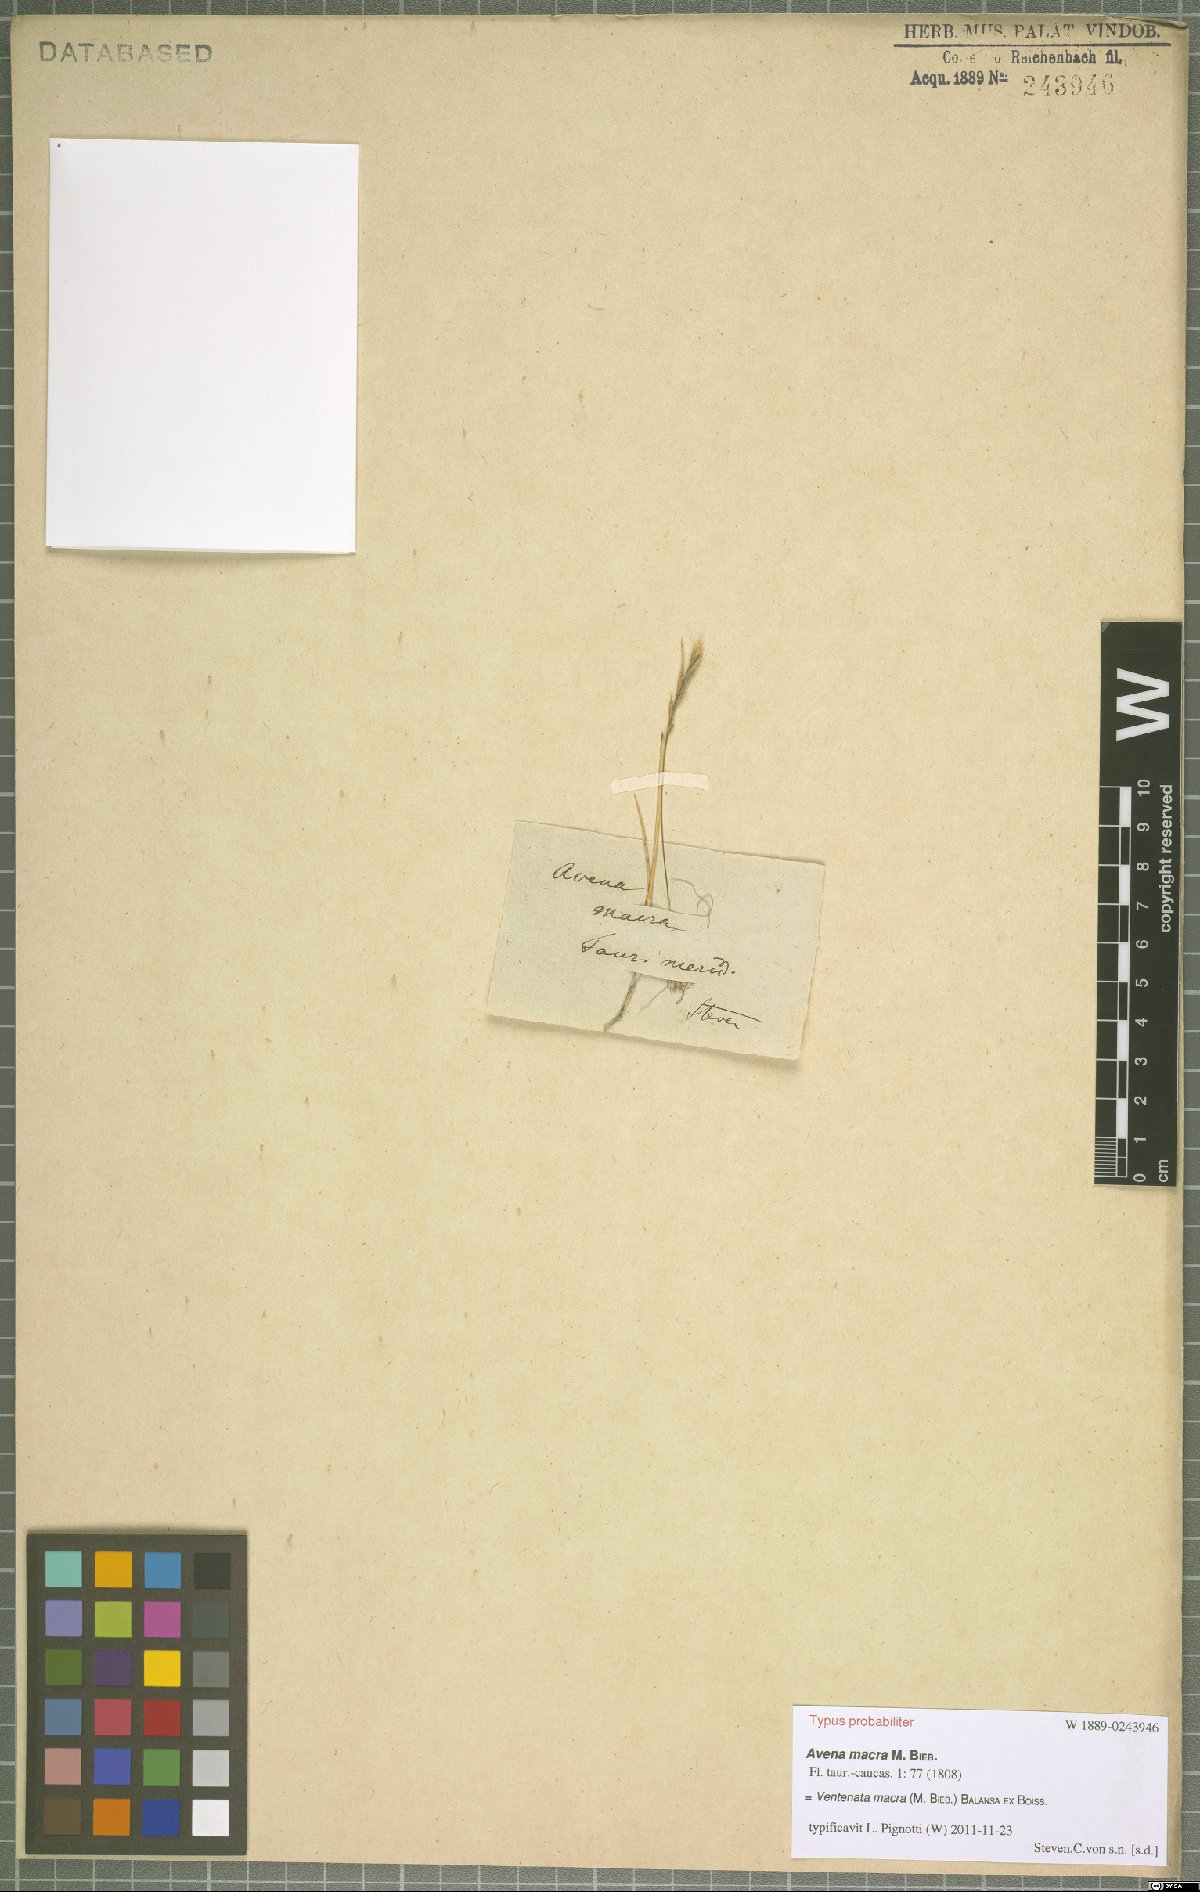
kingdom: Plantae
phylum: Tracheophyta
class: Liliopsida
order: Poales
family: Poaceae
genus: Ventenata
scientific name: Ventenata macra
